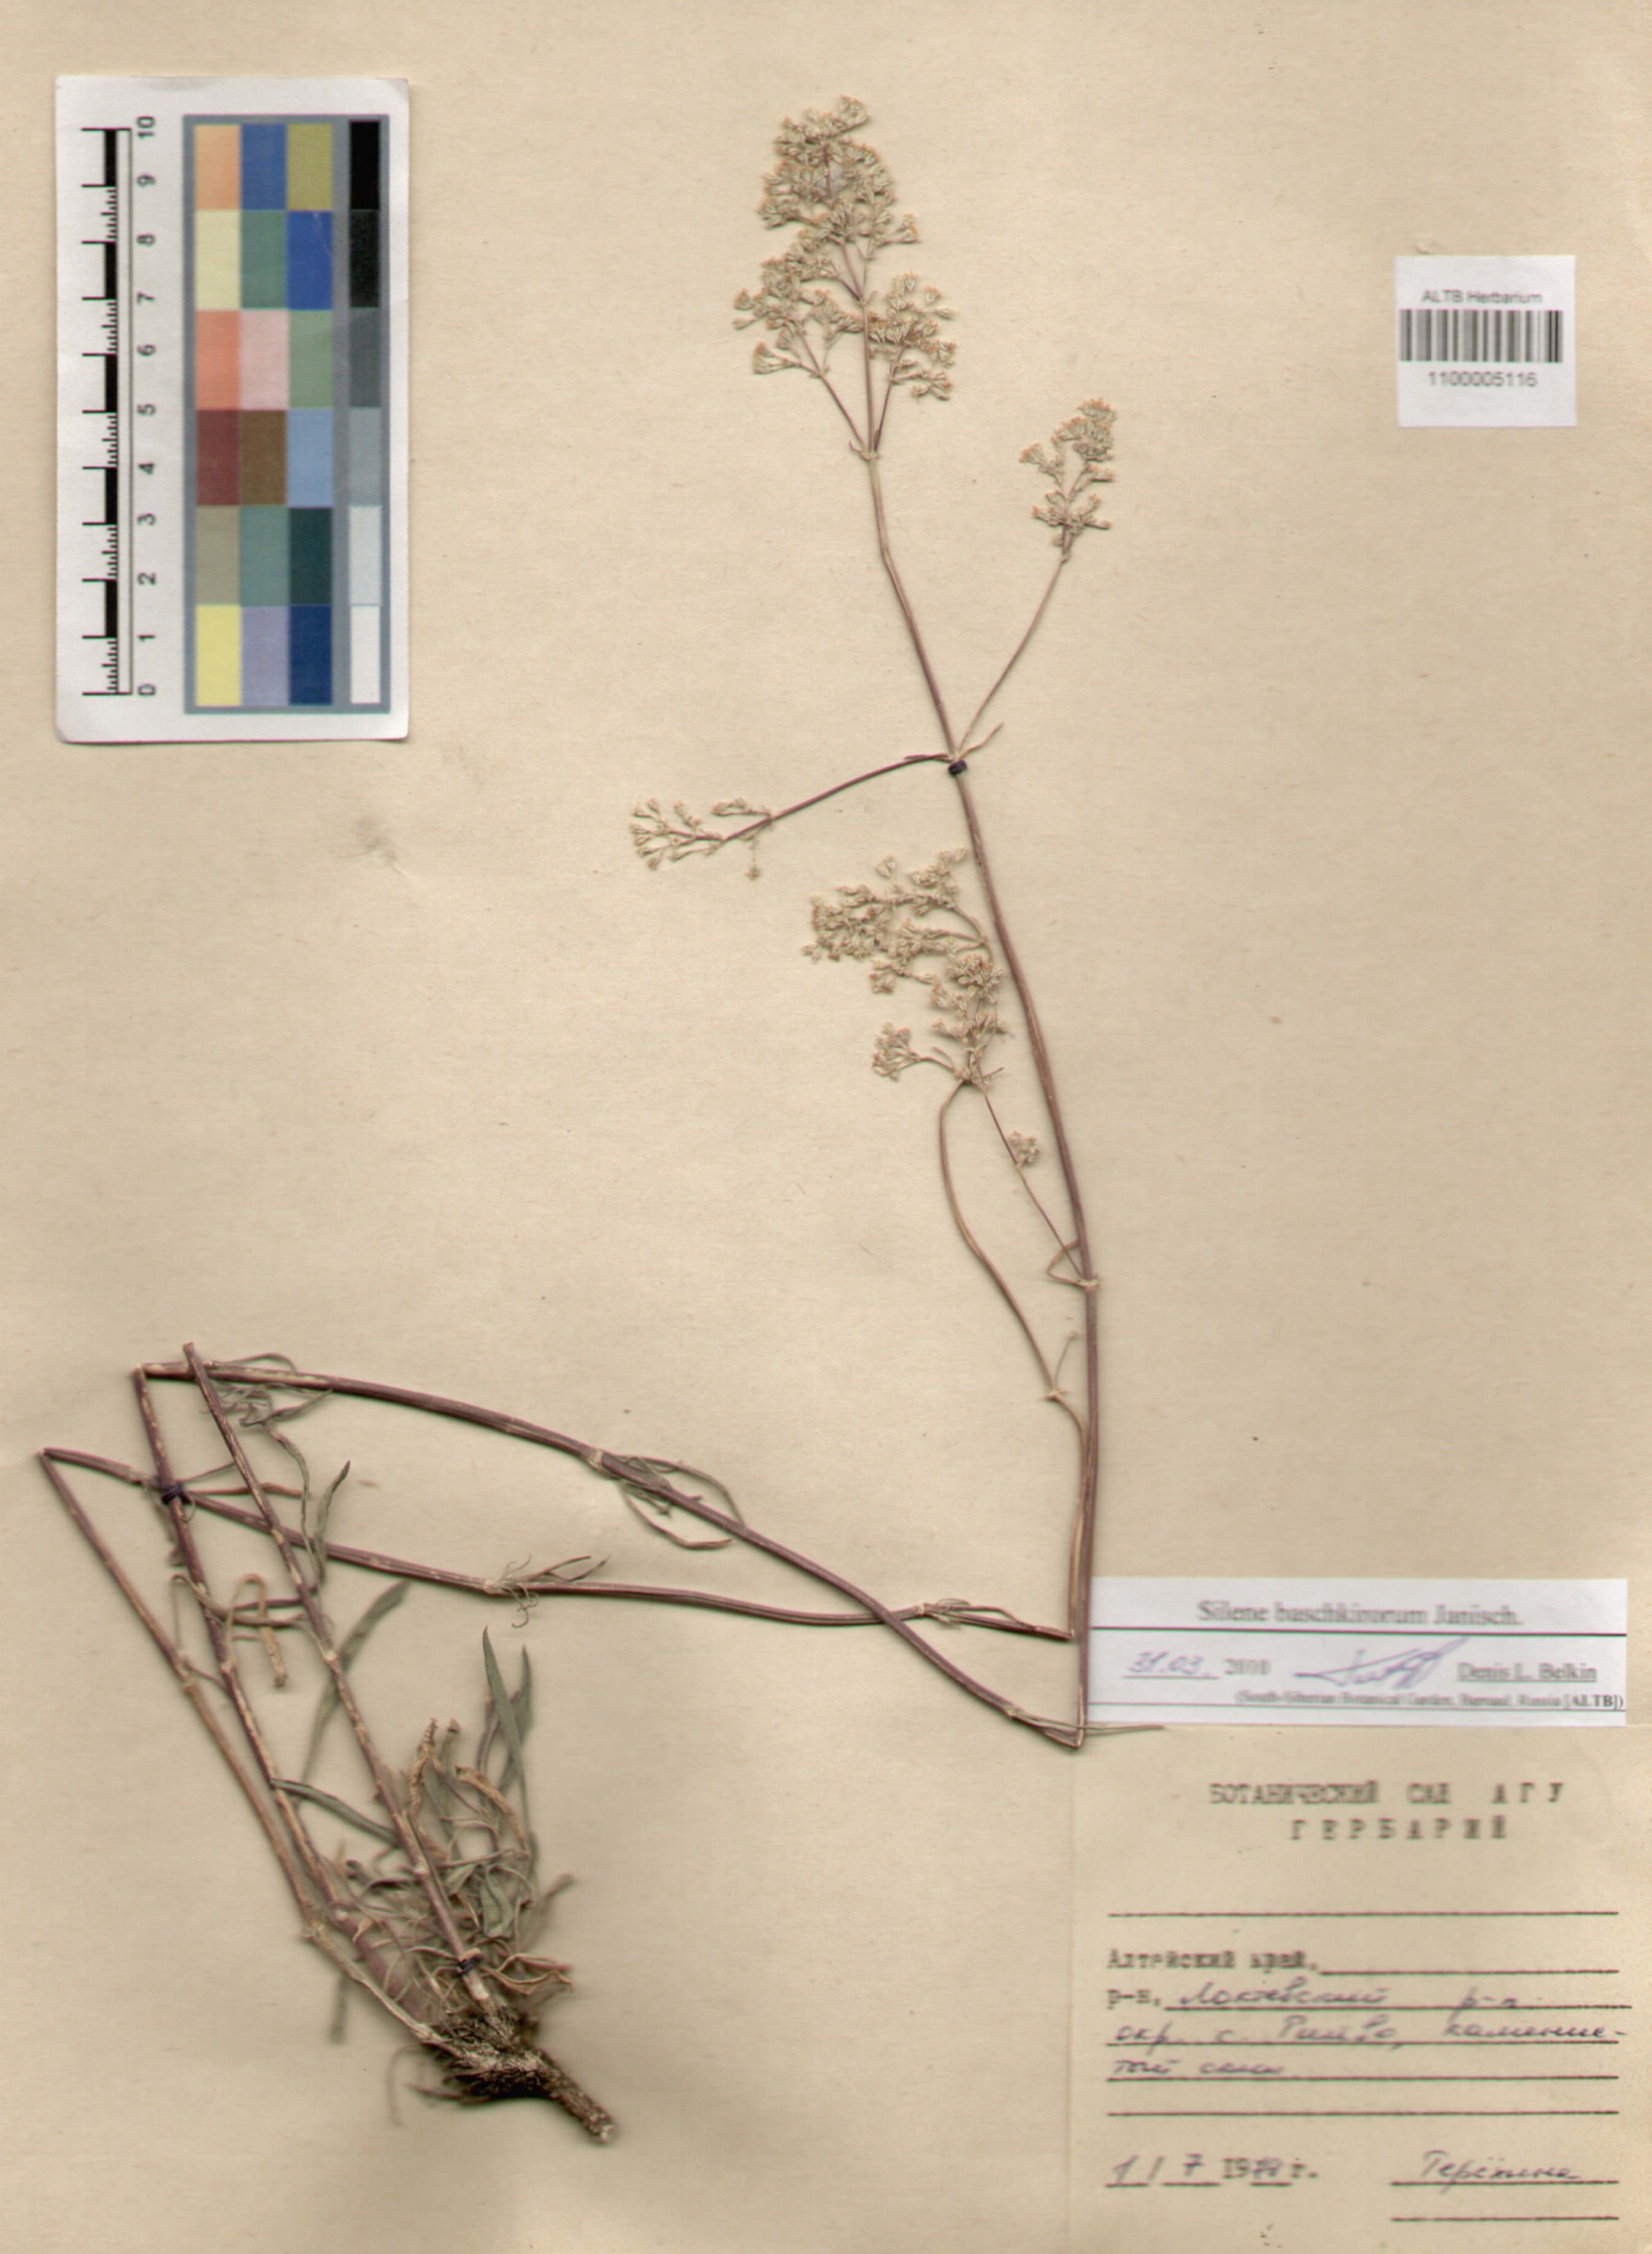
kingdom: Plantae
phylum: Tracheophyta
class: Magnoliopsida
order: Caryophyllales
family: Caryophyllaceae
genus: Silene
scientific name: Silene baschkirorum
